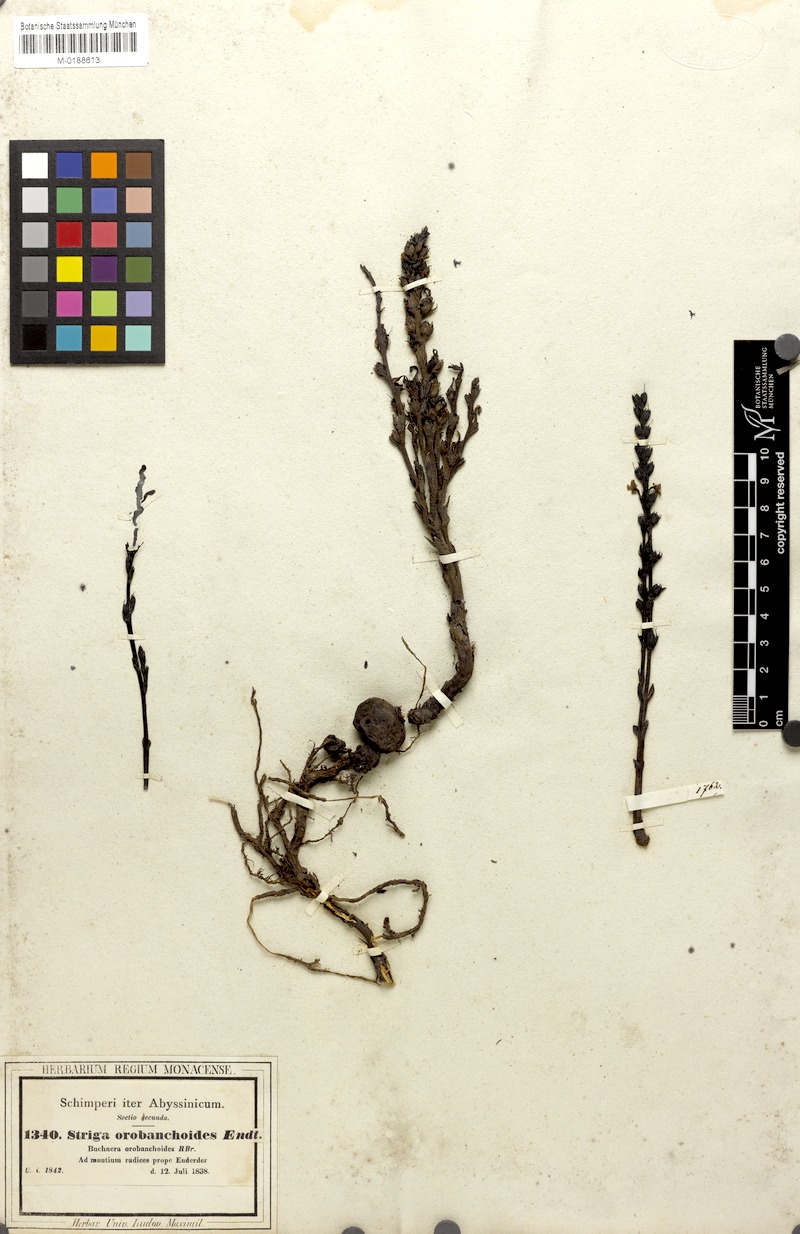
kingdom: Plantae
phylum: Tracheophyta
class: Magnoliopsida
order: Lamiales
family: Orobanchaceae
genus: Striga
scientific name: Striga gesnerioides
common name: Cowpea witchweed
